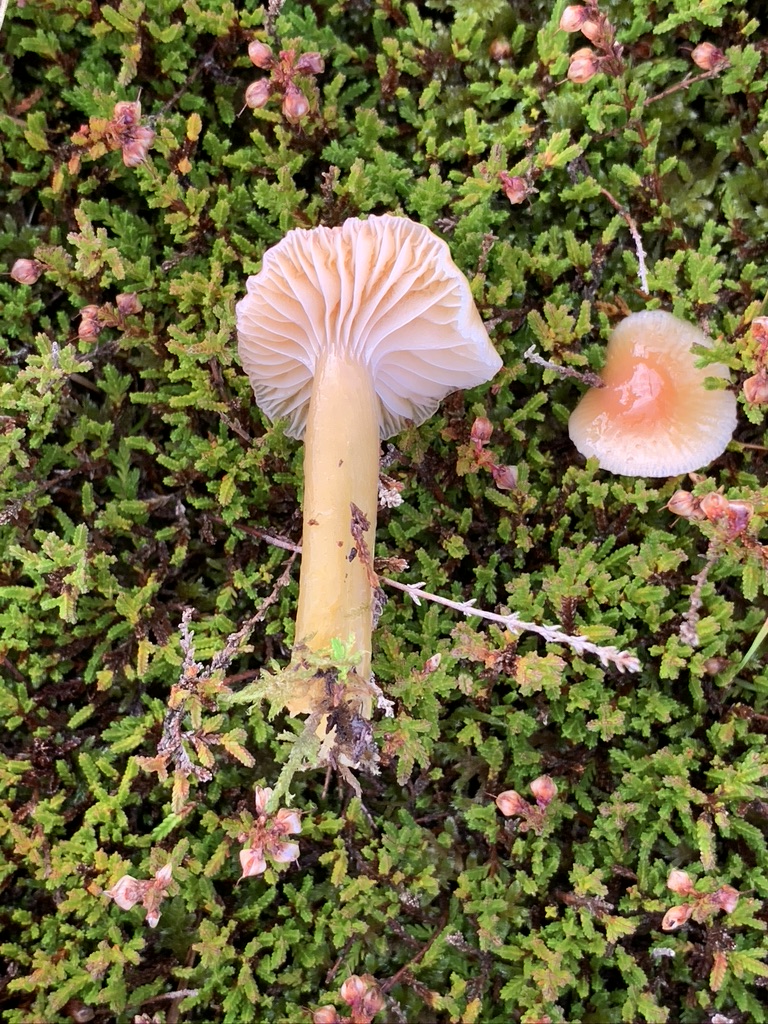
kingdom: Fungi
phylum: Basidiomycota
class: Agaricomycetes
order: Agaricales
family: Hygrophoraceae
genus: Gliophorus
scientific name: Gliophorus laetus
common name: brusk-vokshat
